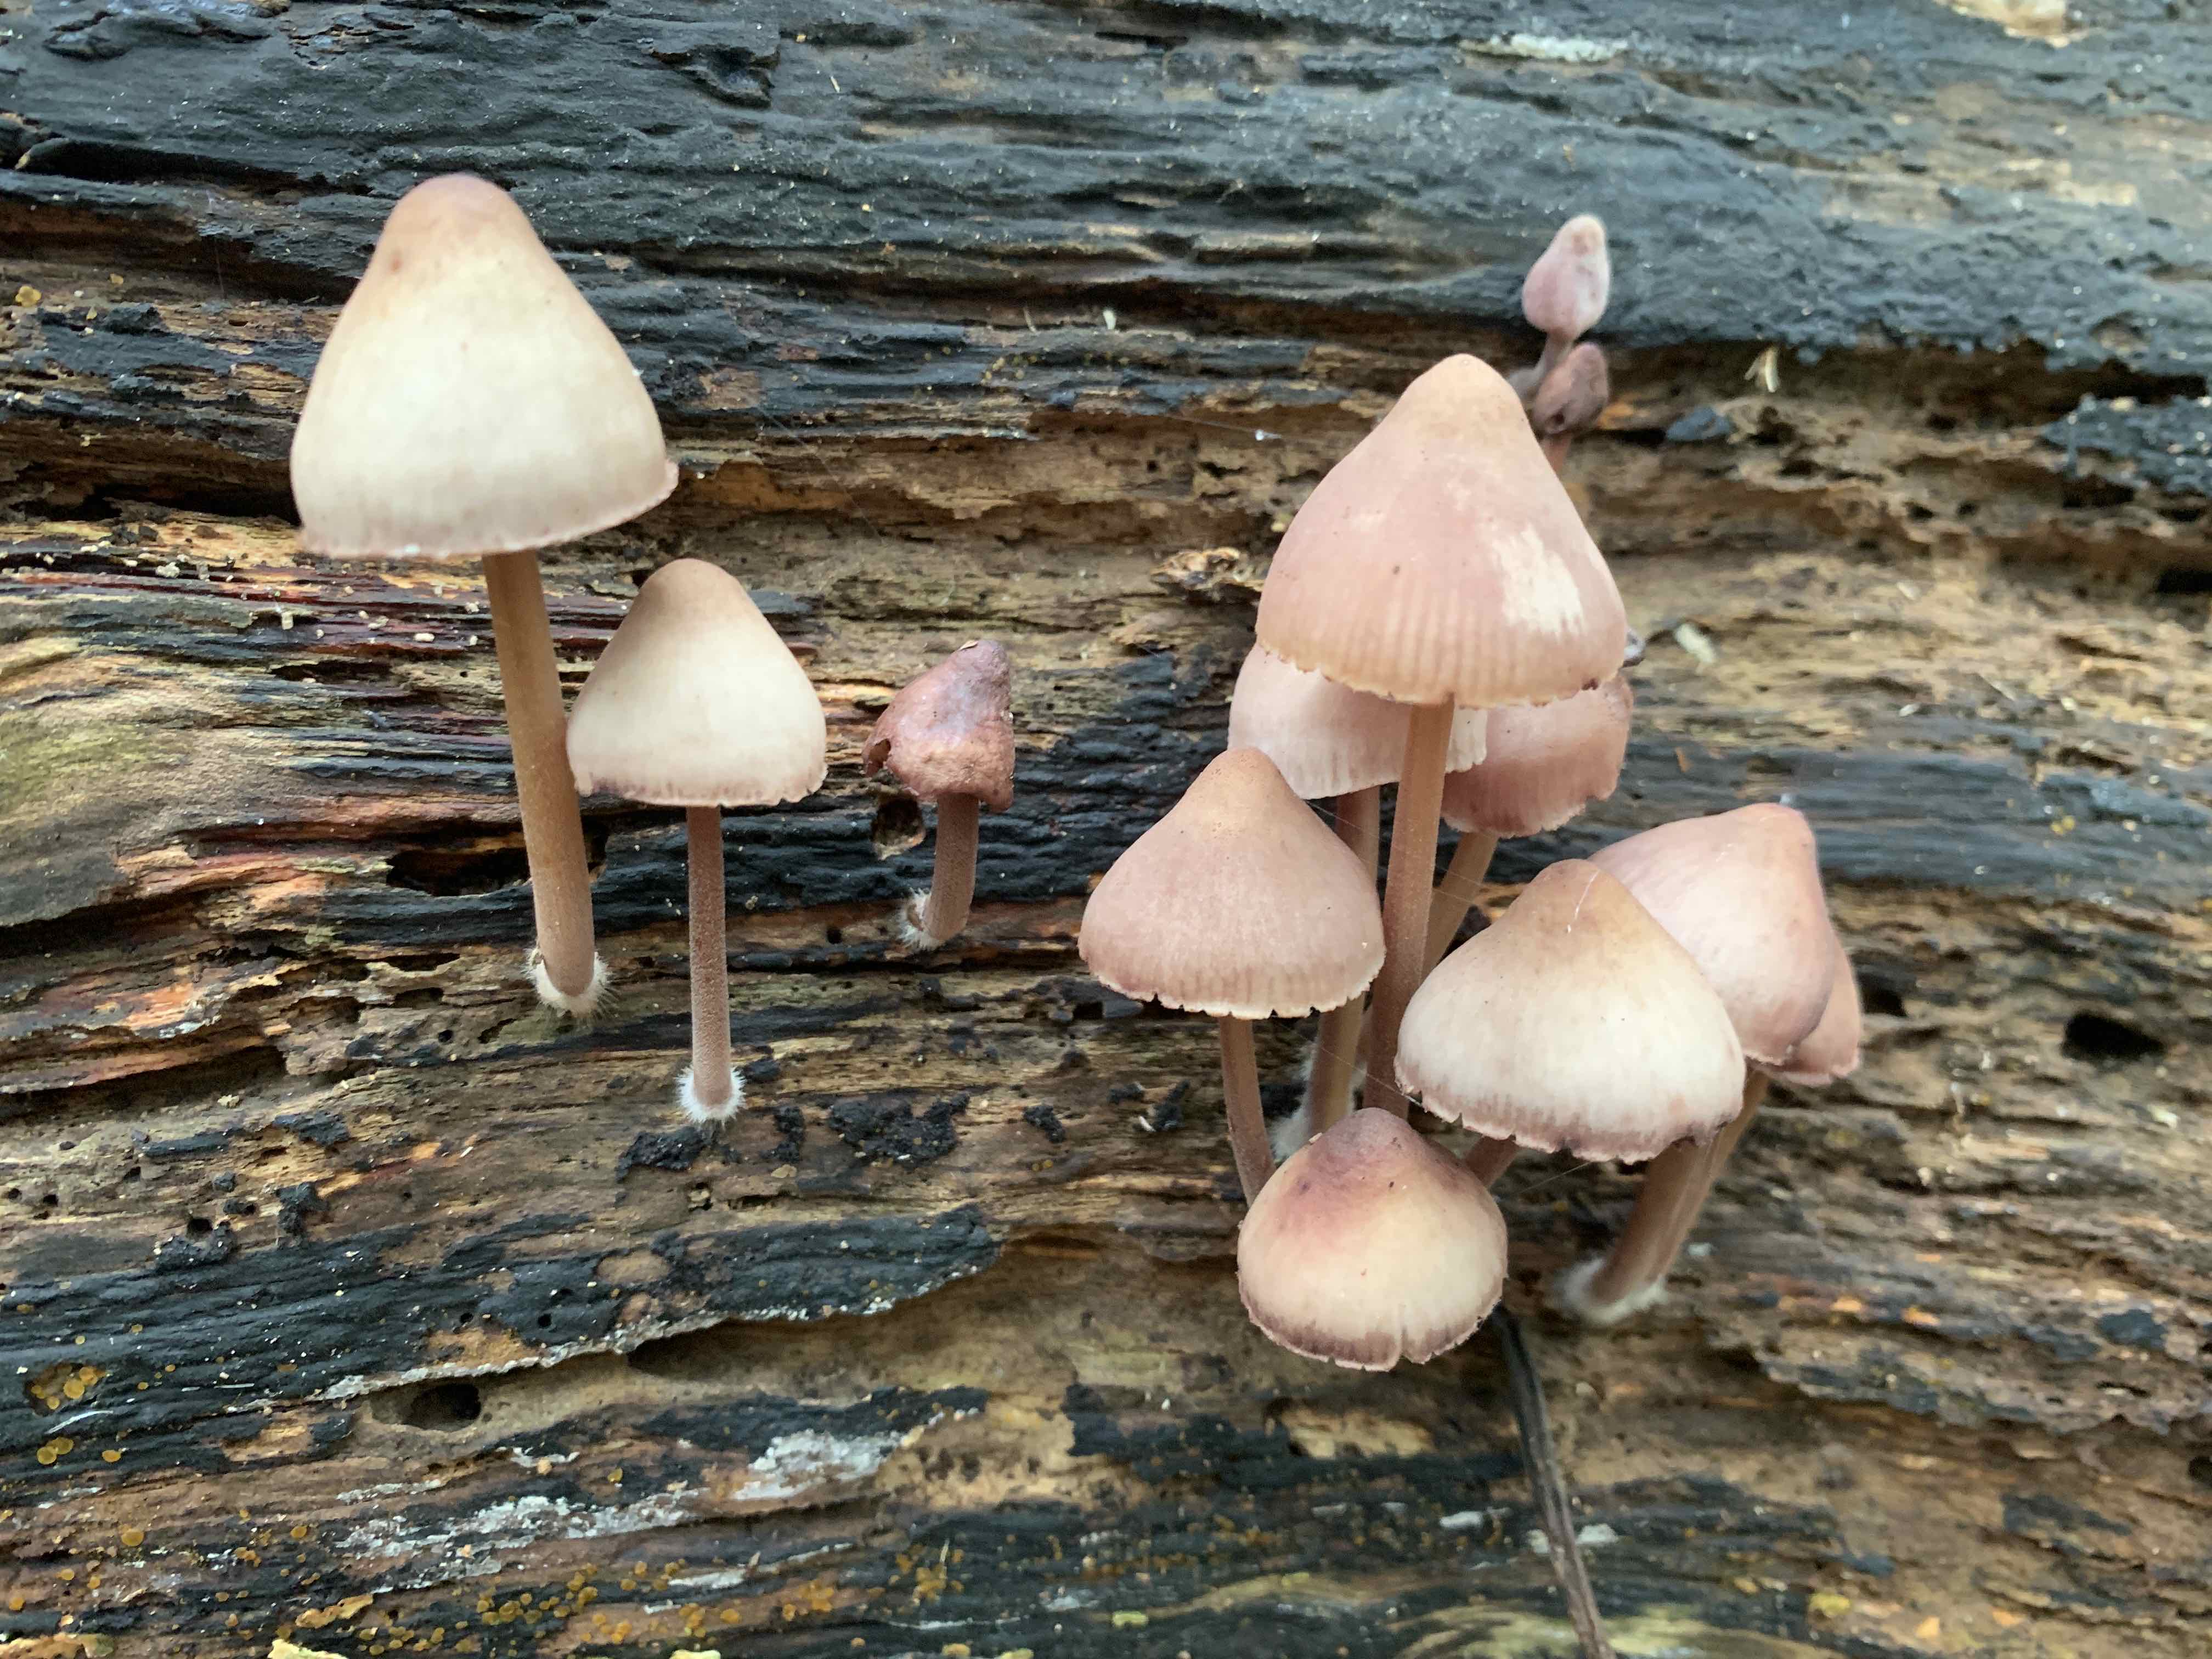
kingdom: Fungi
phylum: Basidiomycota
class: Agaricomycetes
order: Agaricales
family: Mycenaceae
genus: Mycena
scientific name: Mycena haematopus
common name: blødende huesvamp
